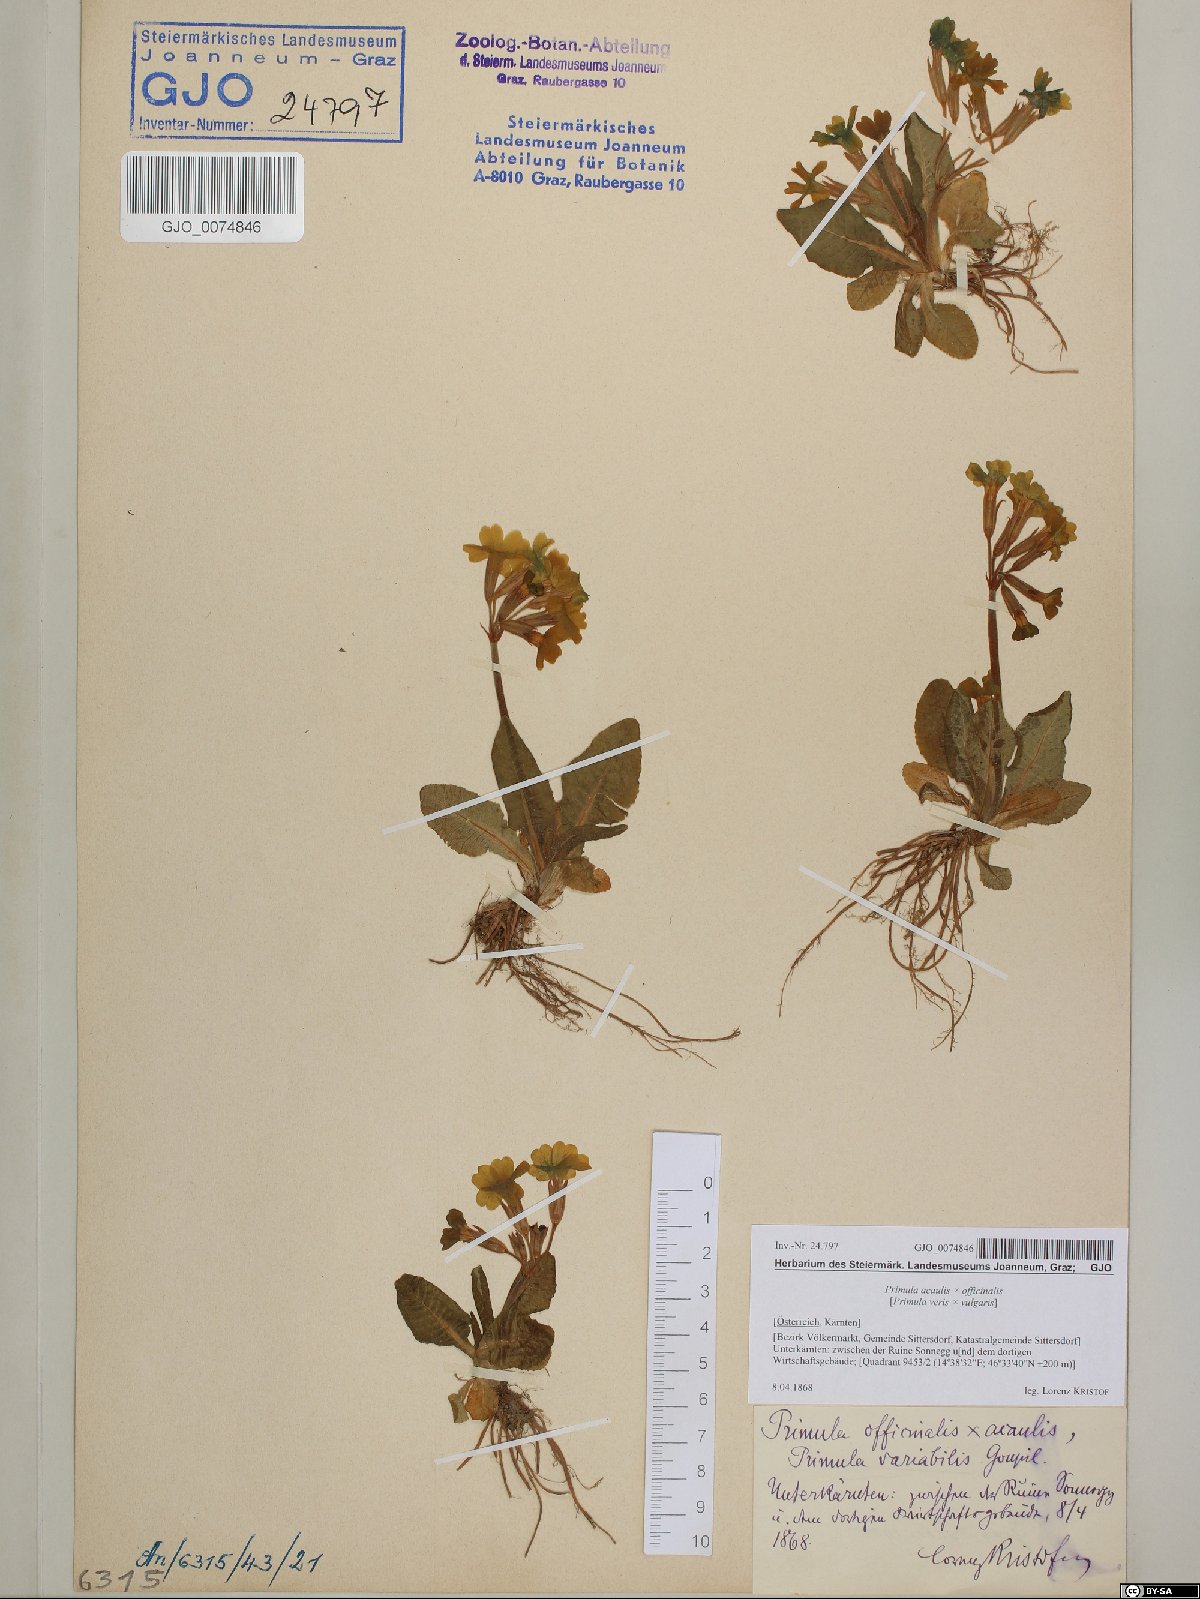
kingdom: Plantae
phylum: Tracheophyta
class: Magnoliopsida
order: Ericales
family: Primulaceae
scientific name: Primulaceae
